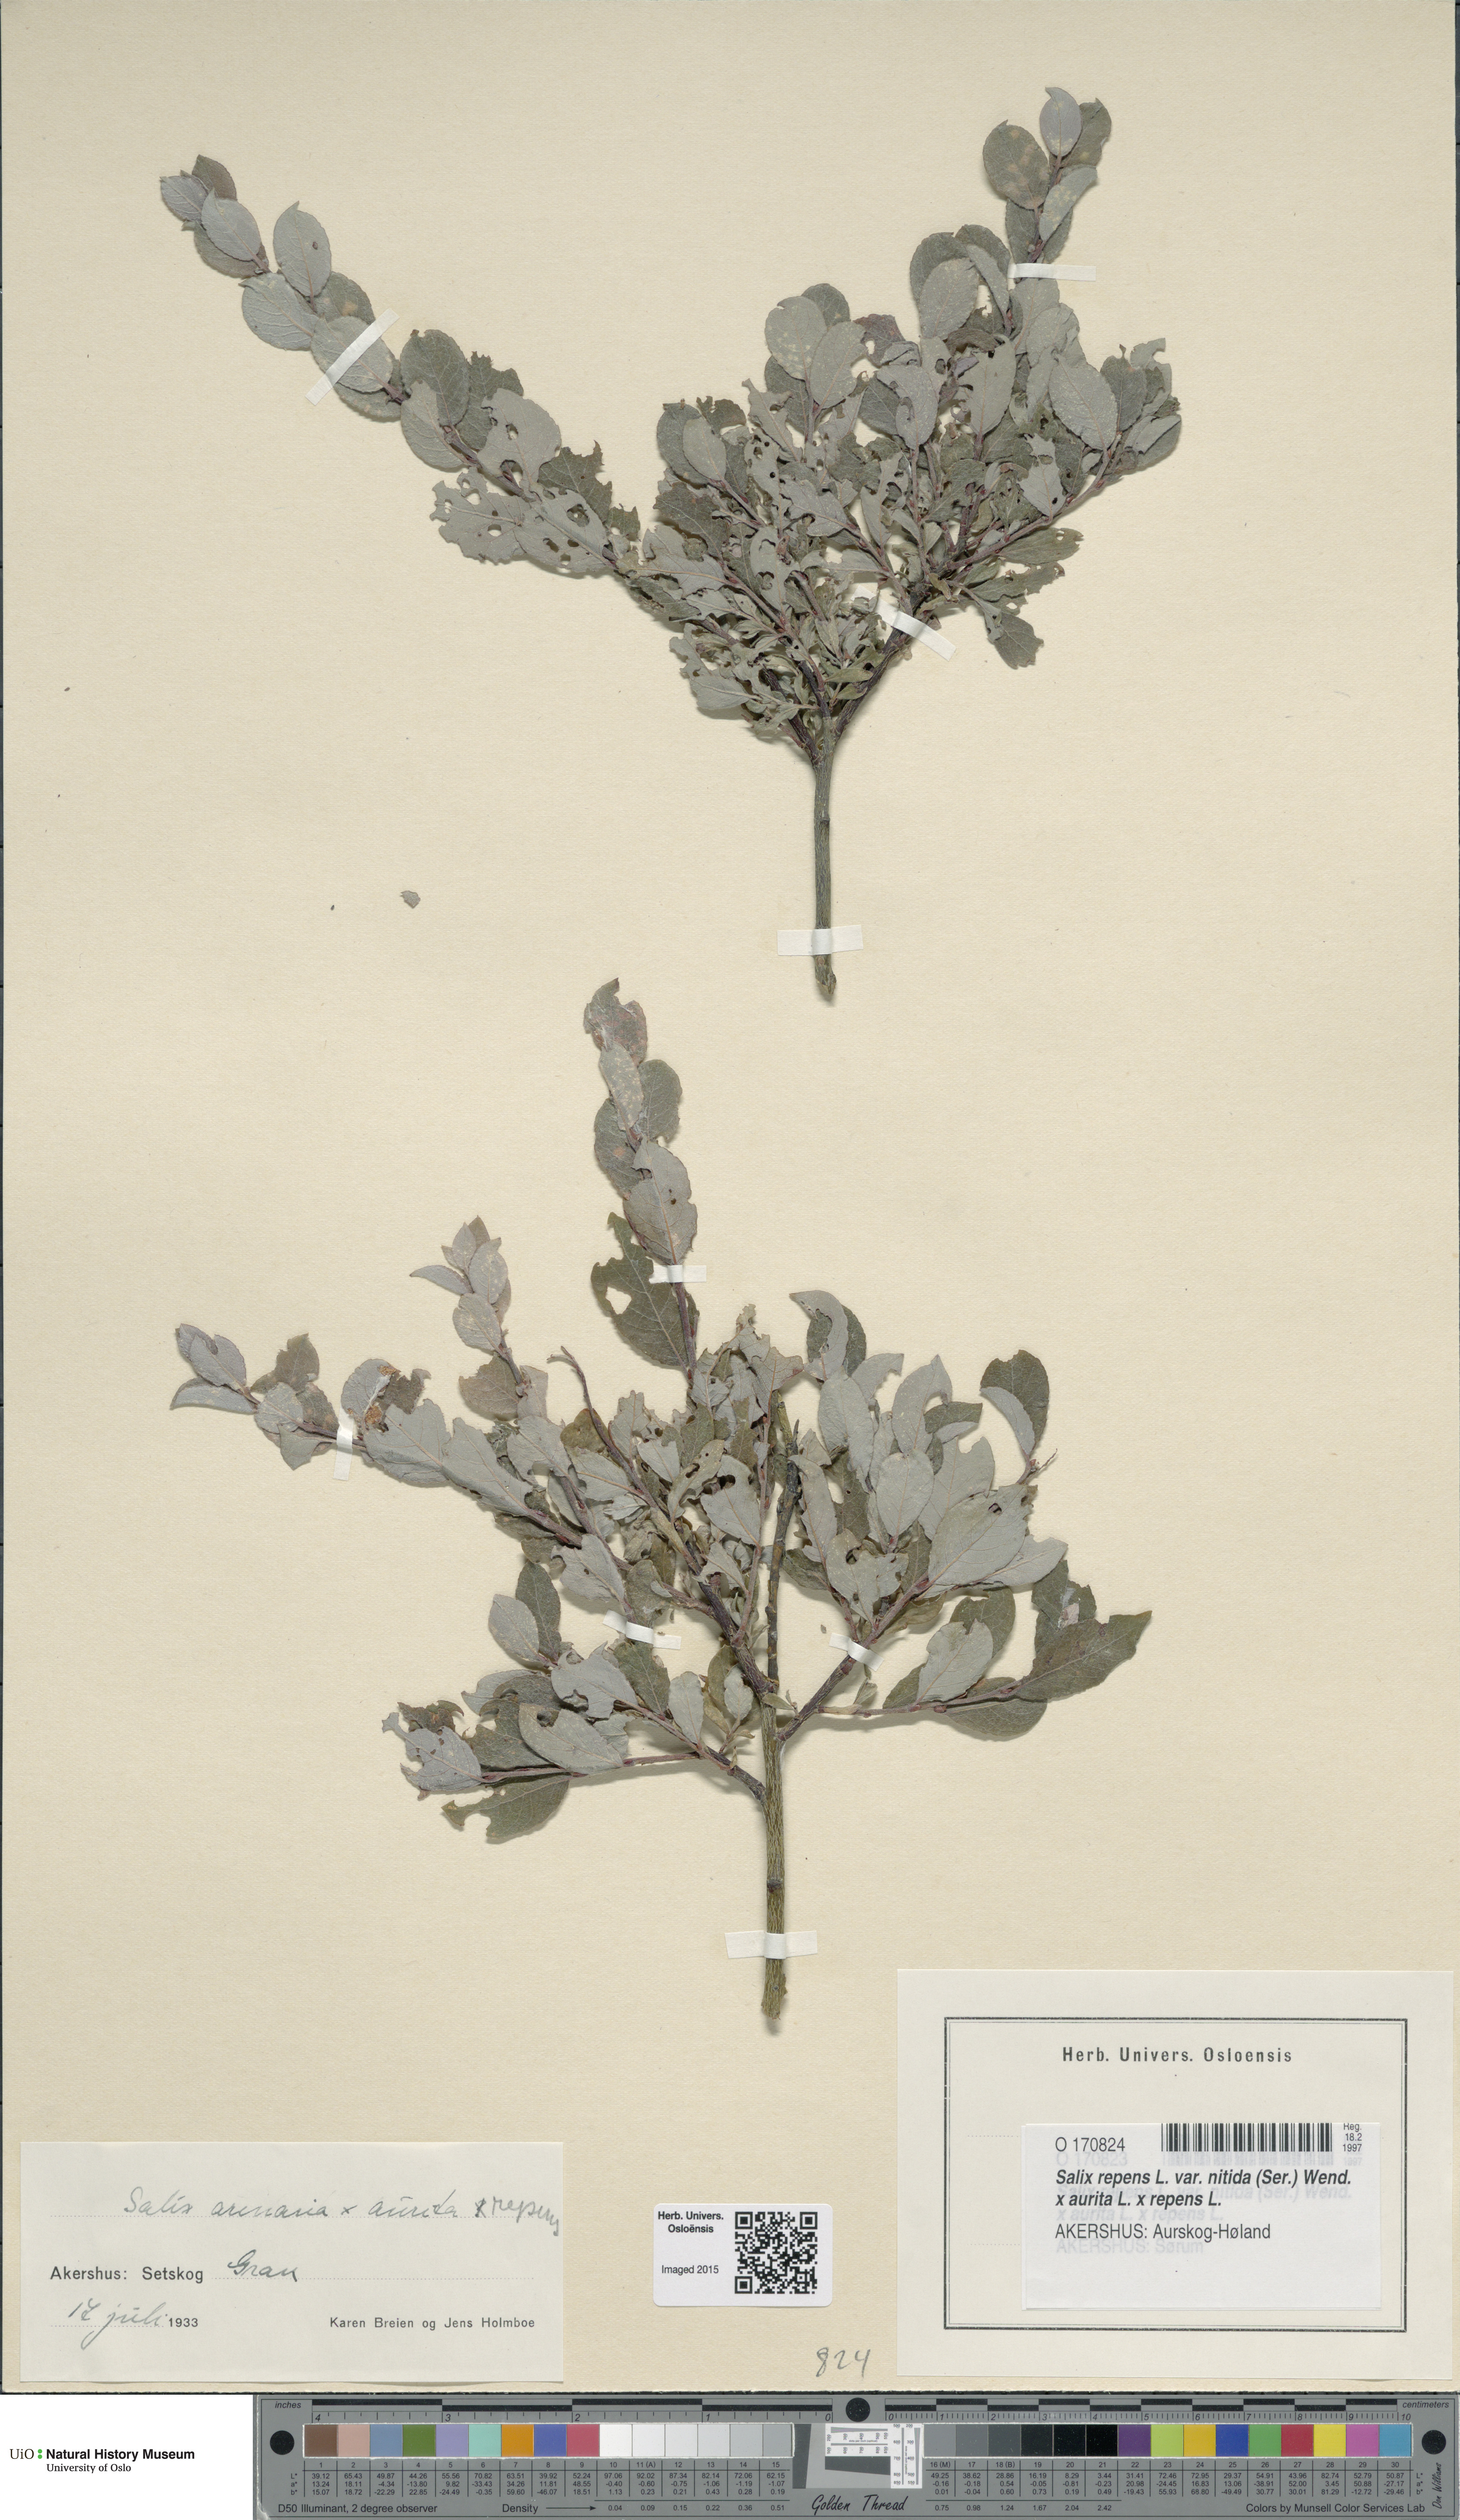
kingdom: Plantae
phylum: Tracheophyta
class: Magnoliopsida
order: Malpighiales
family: Salicaceae
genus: Salix
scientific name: Salix
